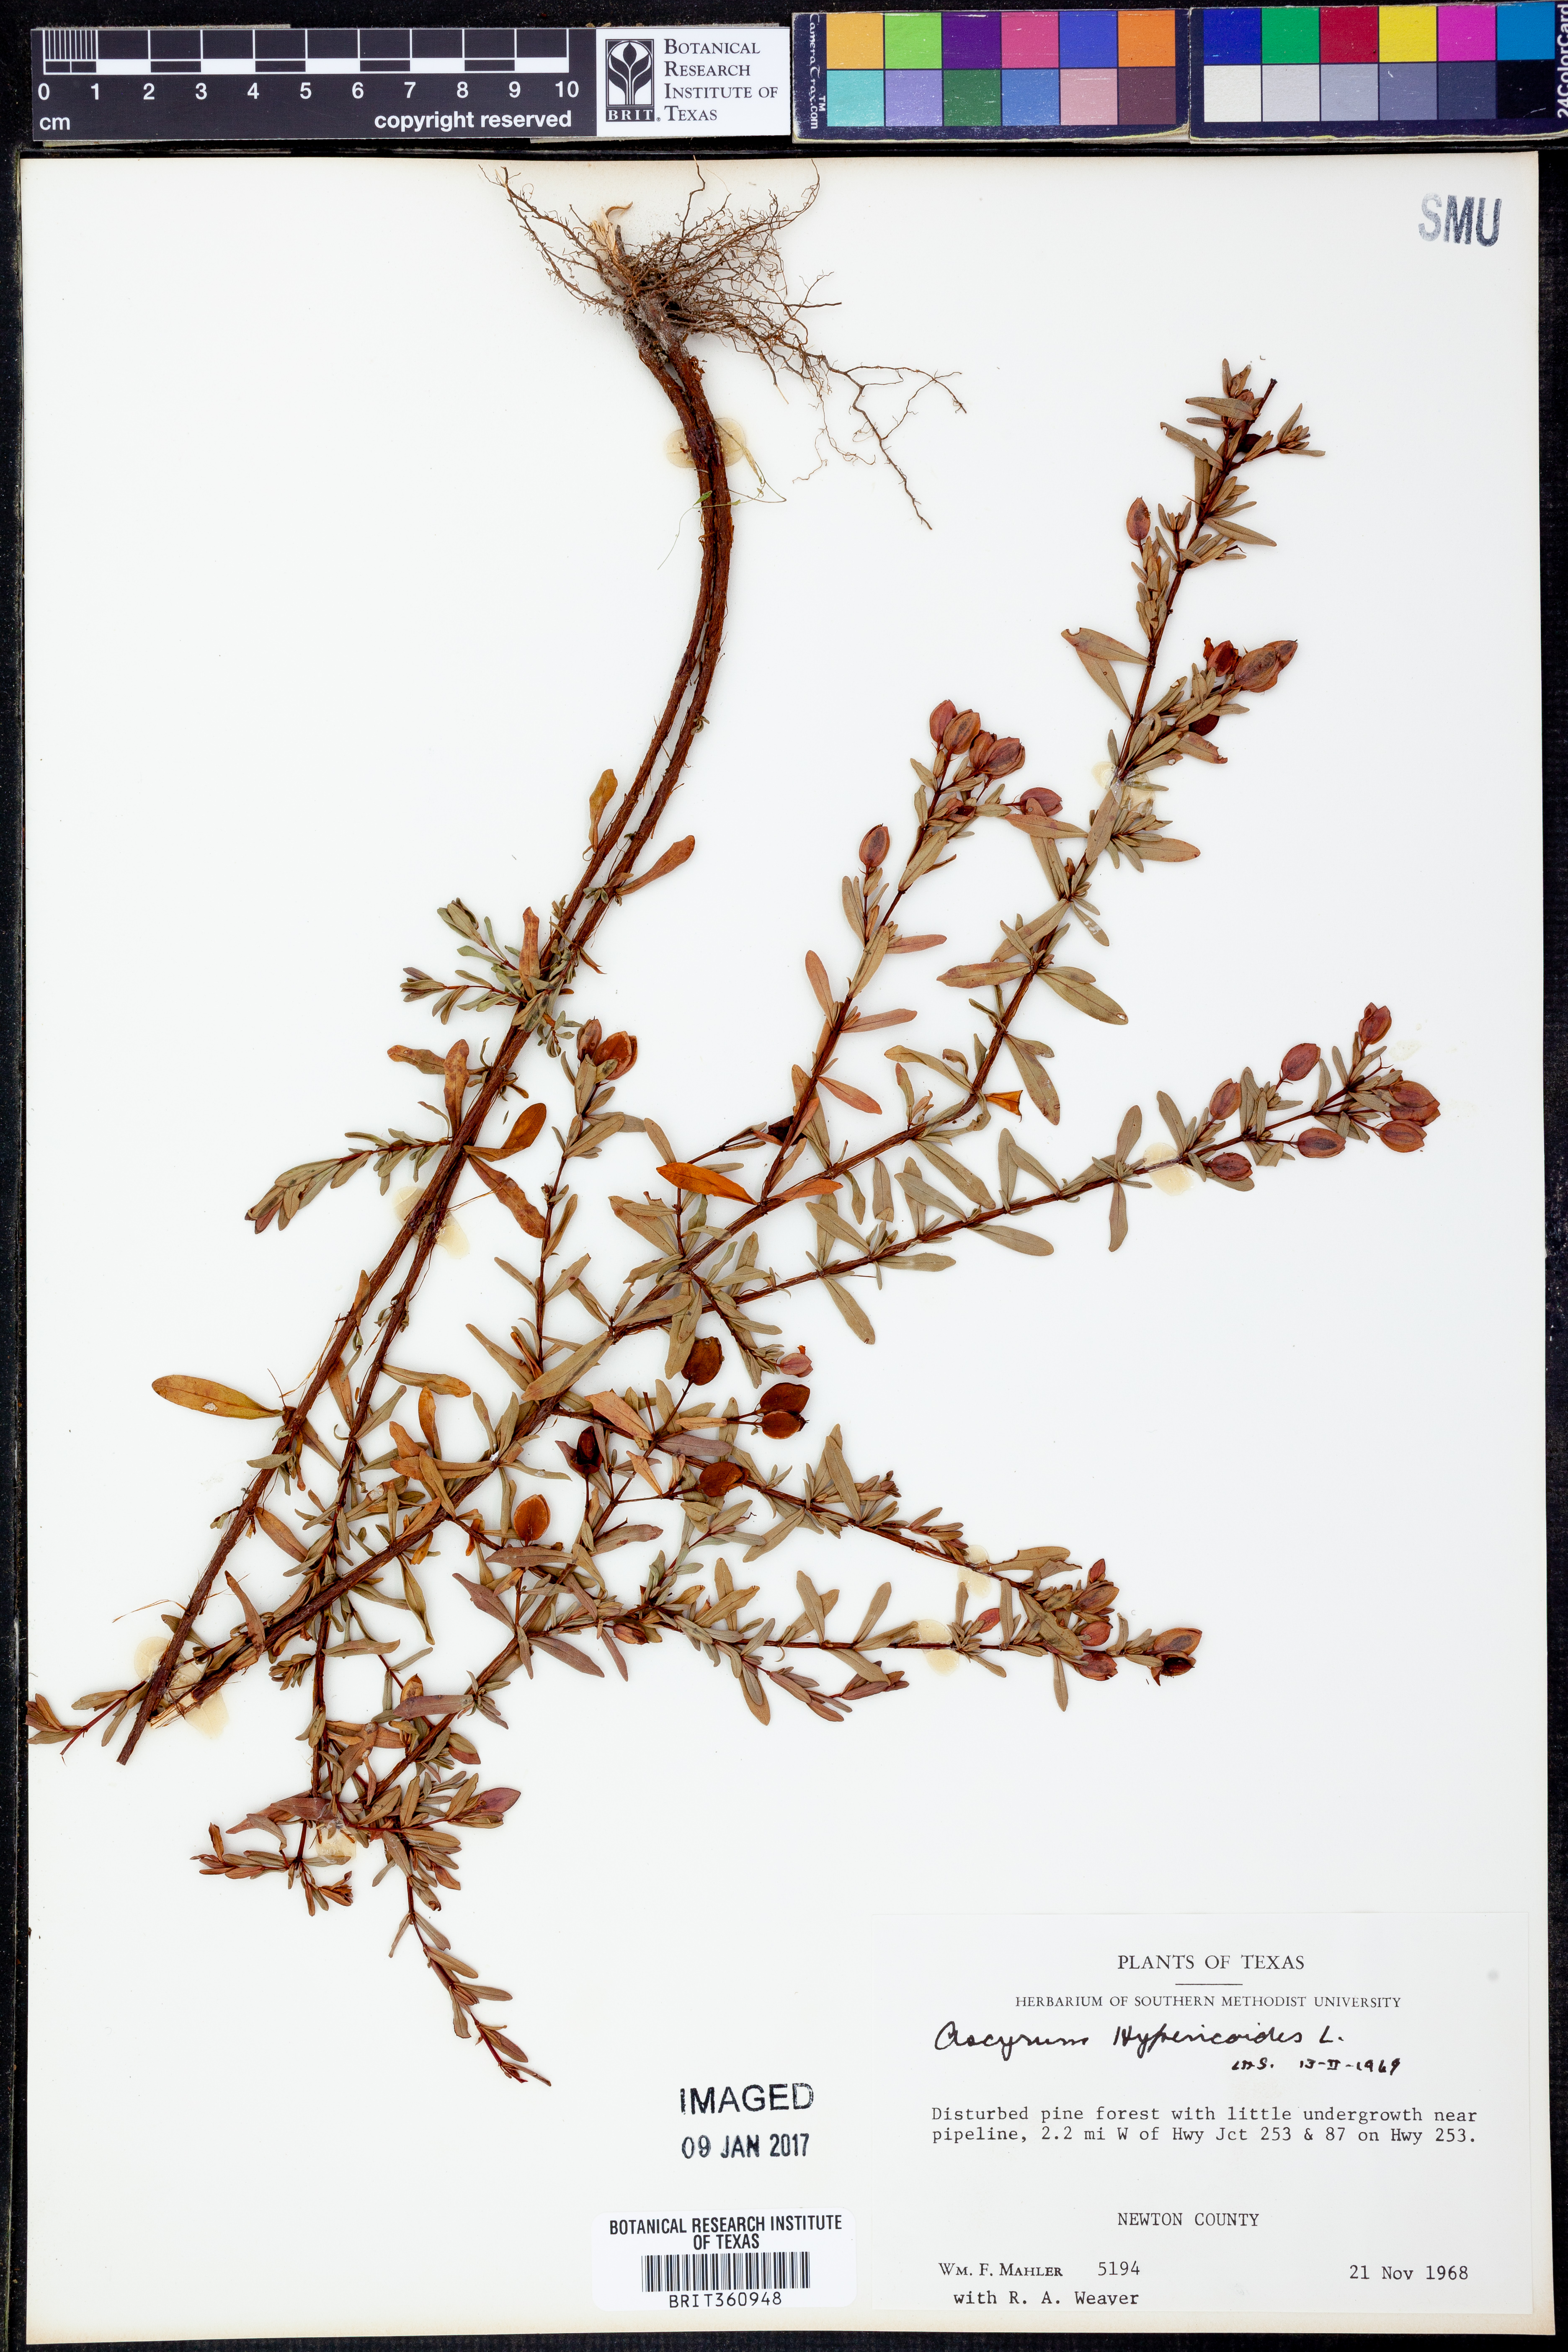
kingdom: Plantae
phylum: Tracheophyta
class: Magnoliopsida
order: Malpighiales
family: Hypericaceae
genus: Hypericum
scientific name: Hypericum hypericoides
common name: St. andrew's cross
